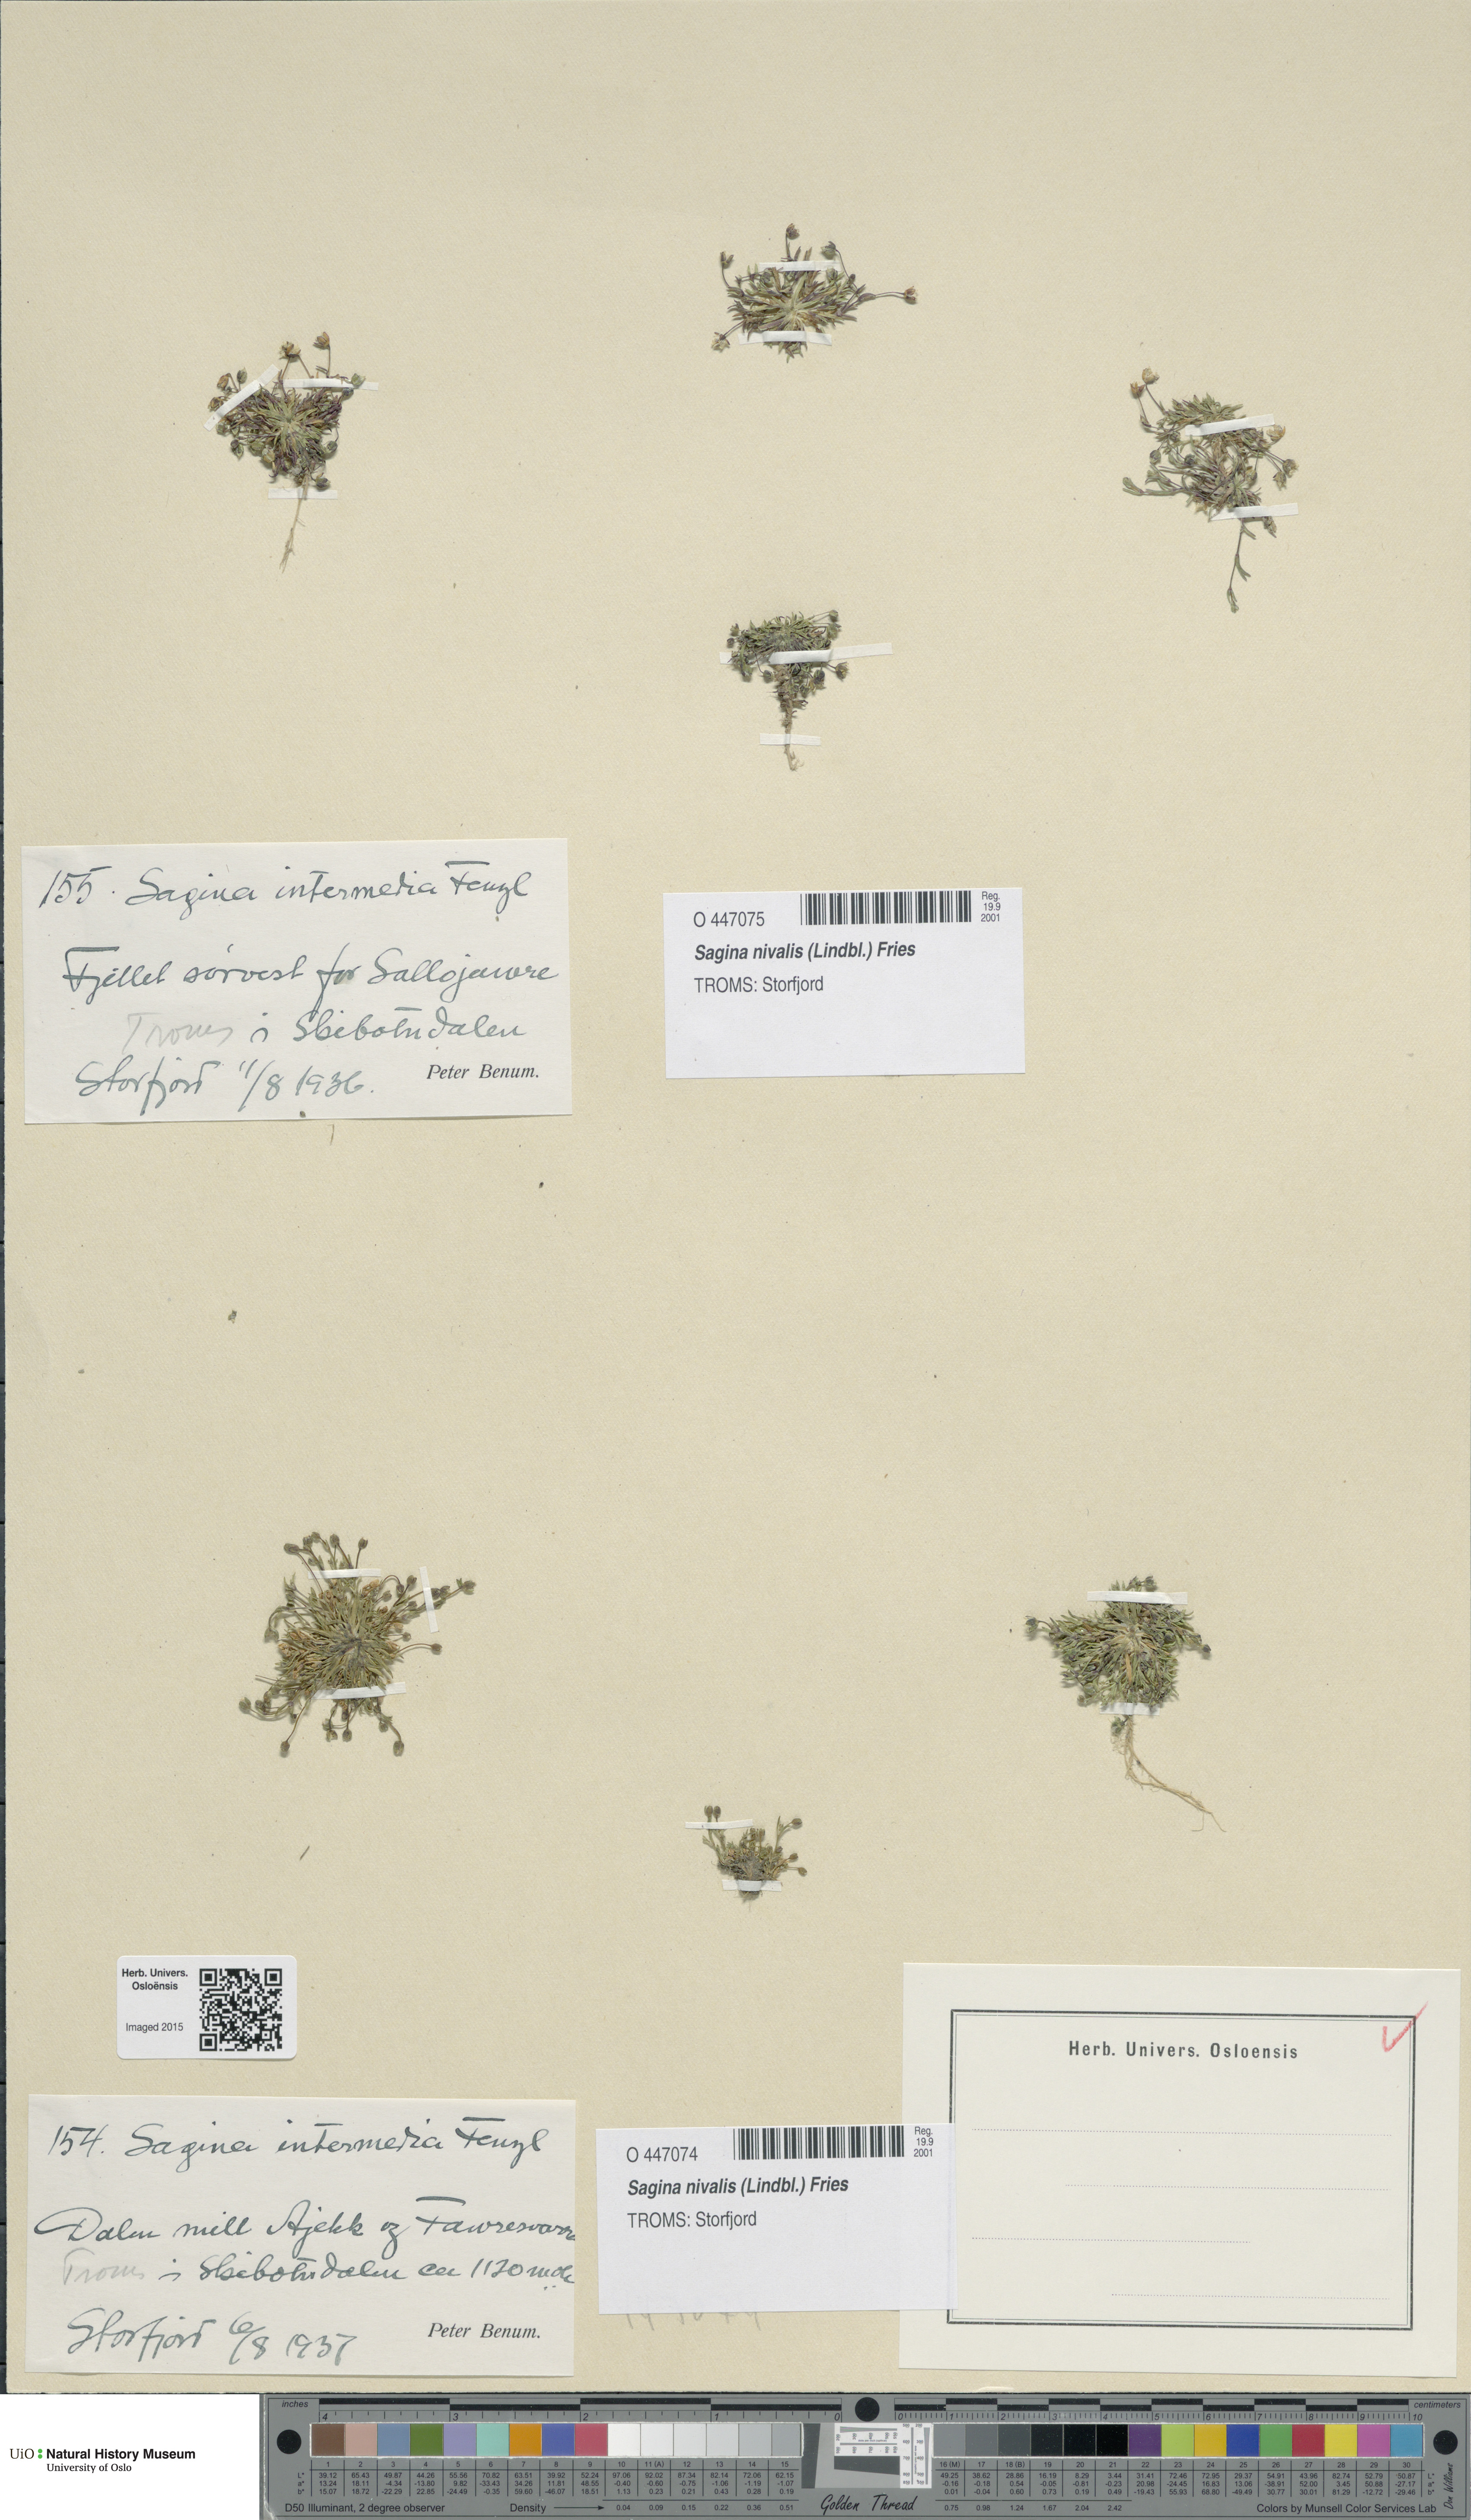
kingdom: Plantae
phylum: Tracheophyta
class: Magnoliopsida
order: Caryophyllales
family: Caryophyllaceae
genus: Sagina
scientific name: Sagina nivalis
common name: Snow pearlwort
